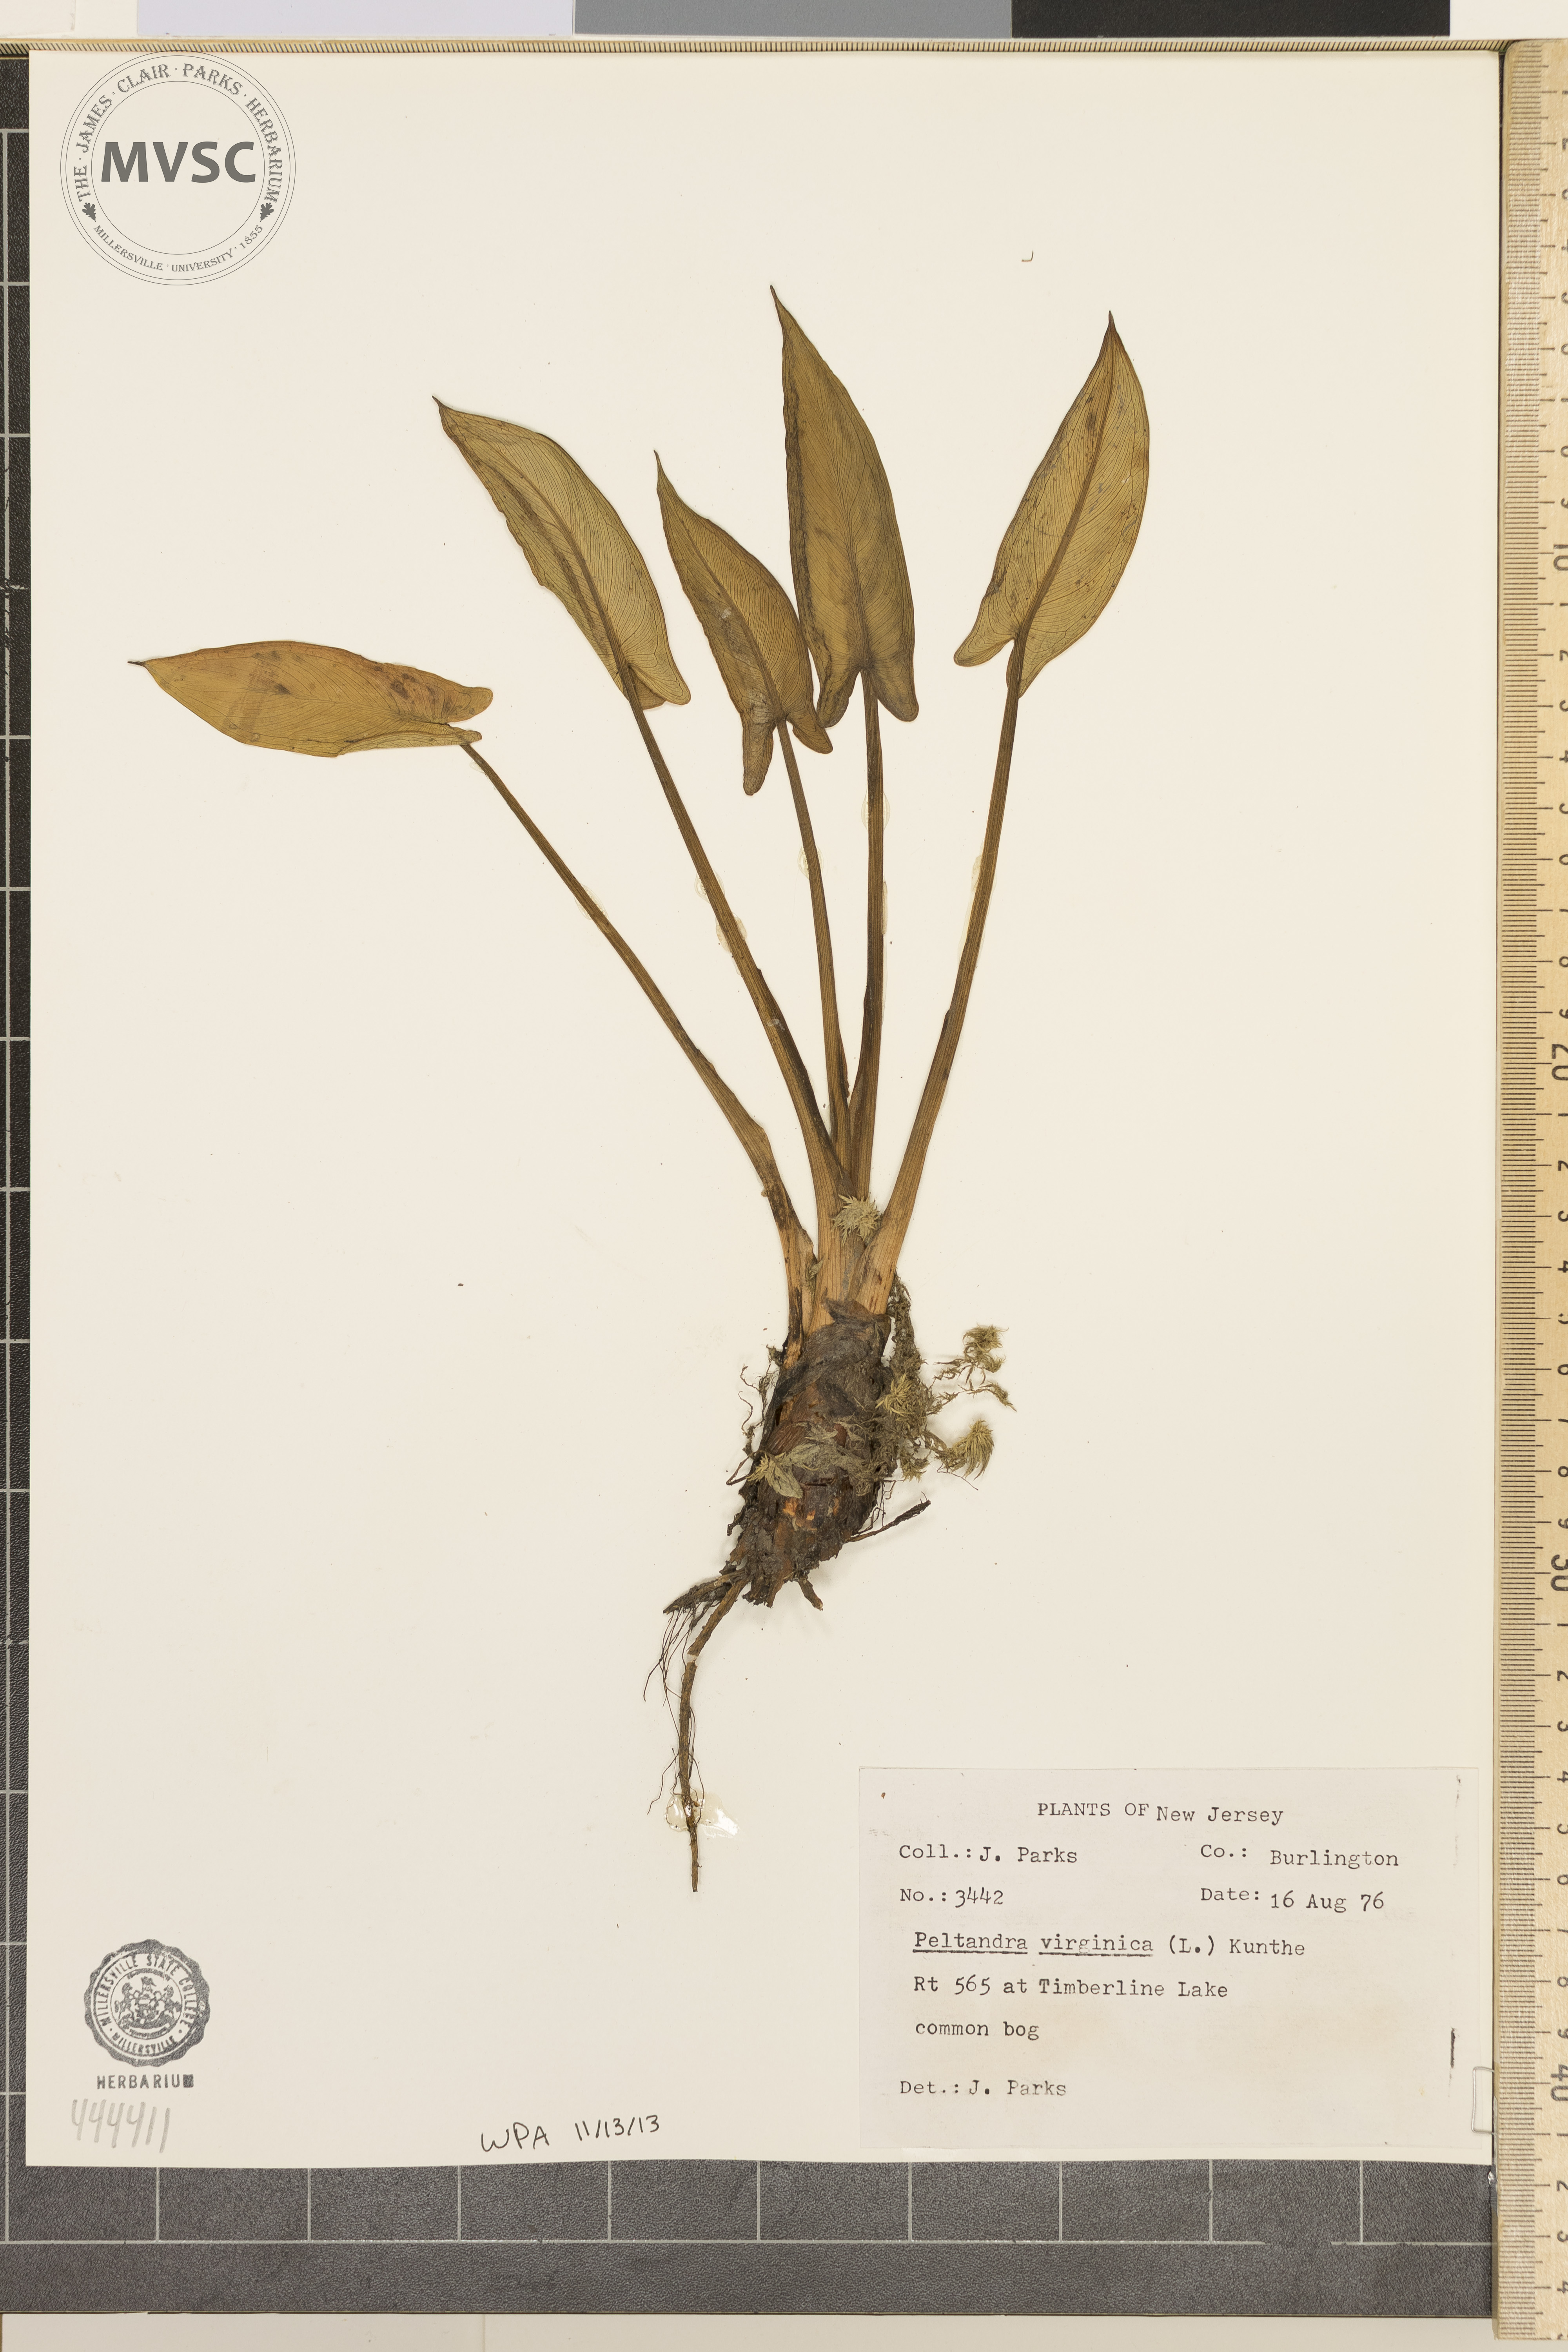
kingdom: Plantae
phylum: Tracheophyta
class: Liliopsida
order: Alismatales
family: Araceae
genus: Peltandra
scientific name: Peltandra virginica
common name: Arrow arum
